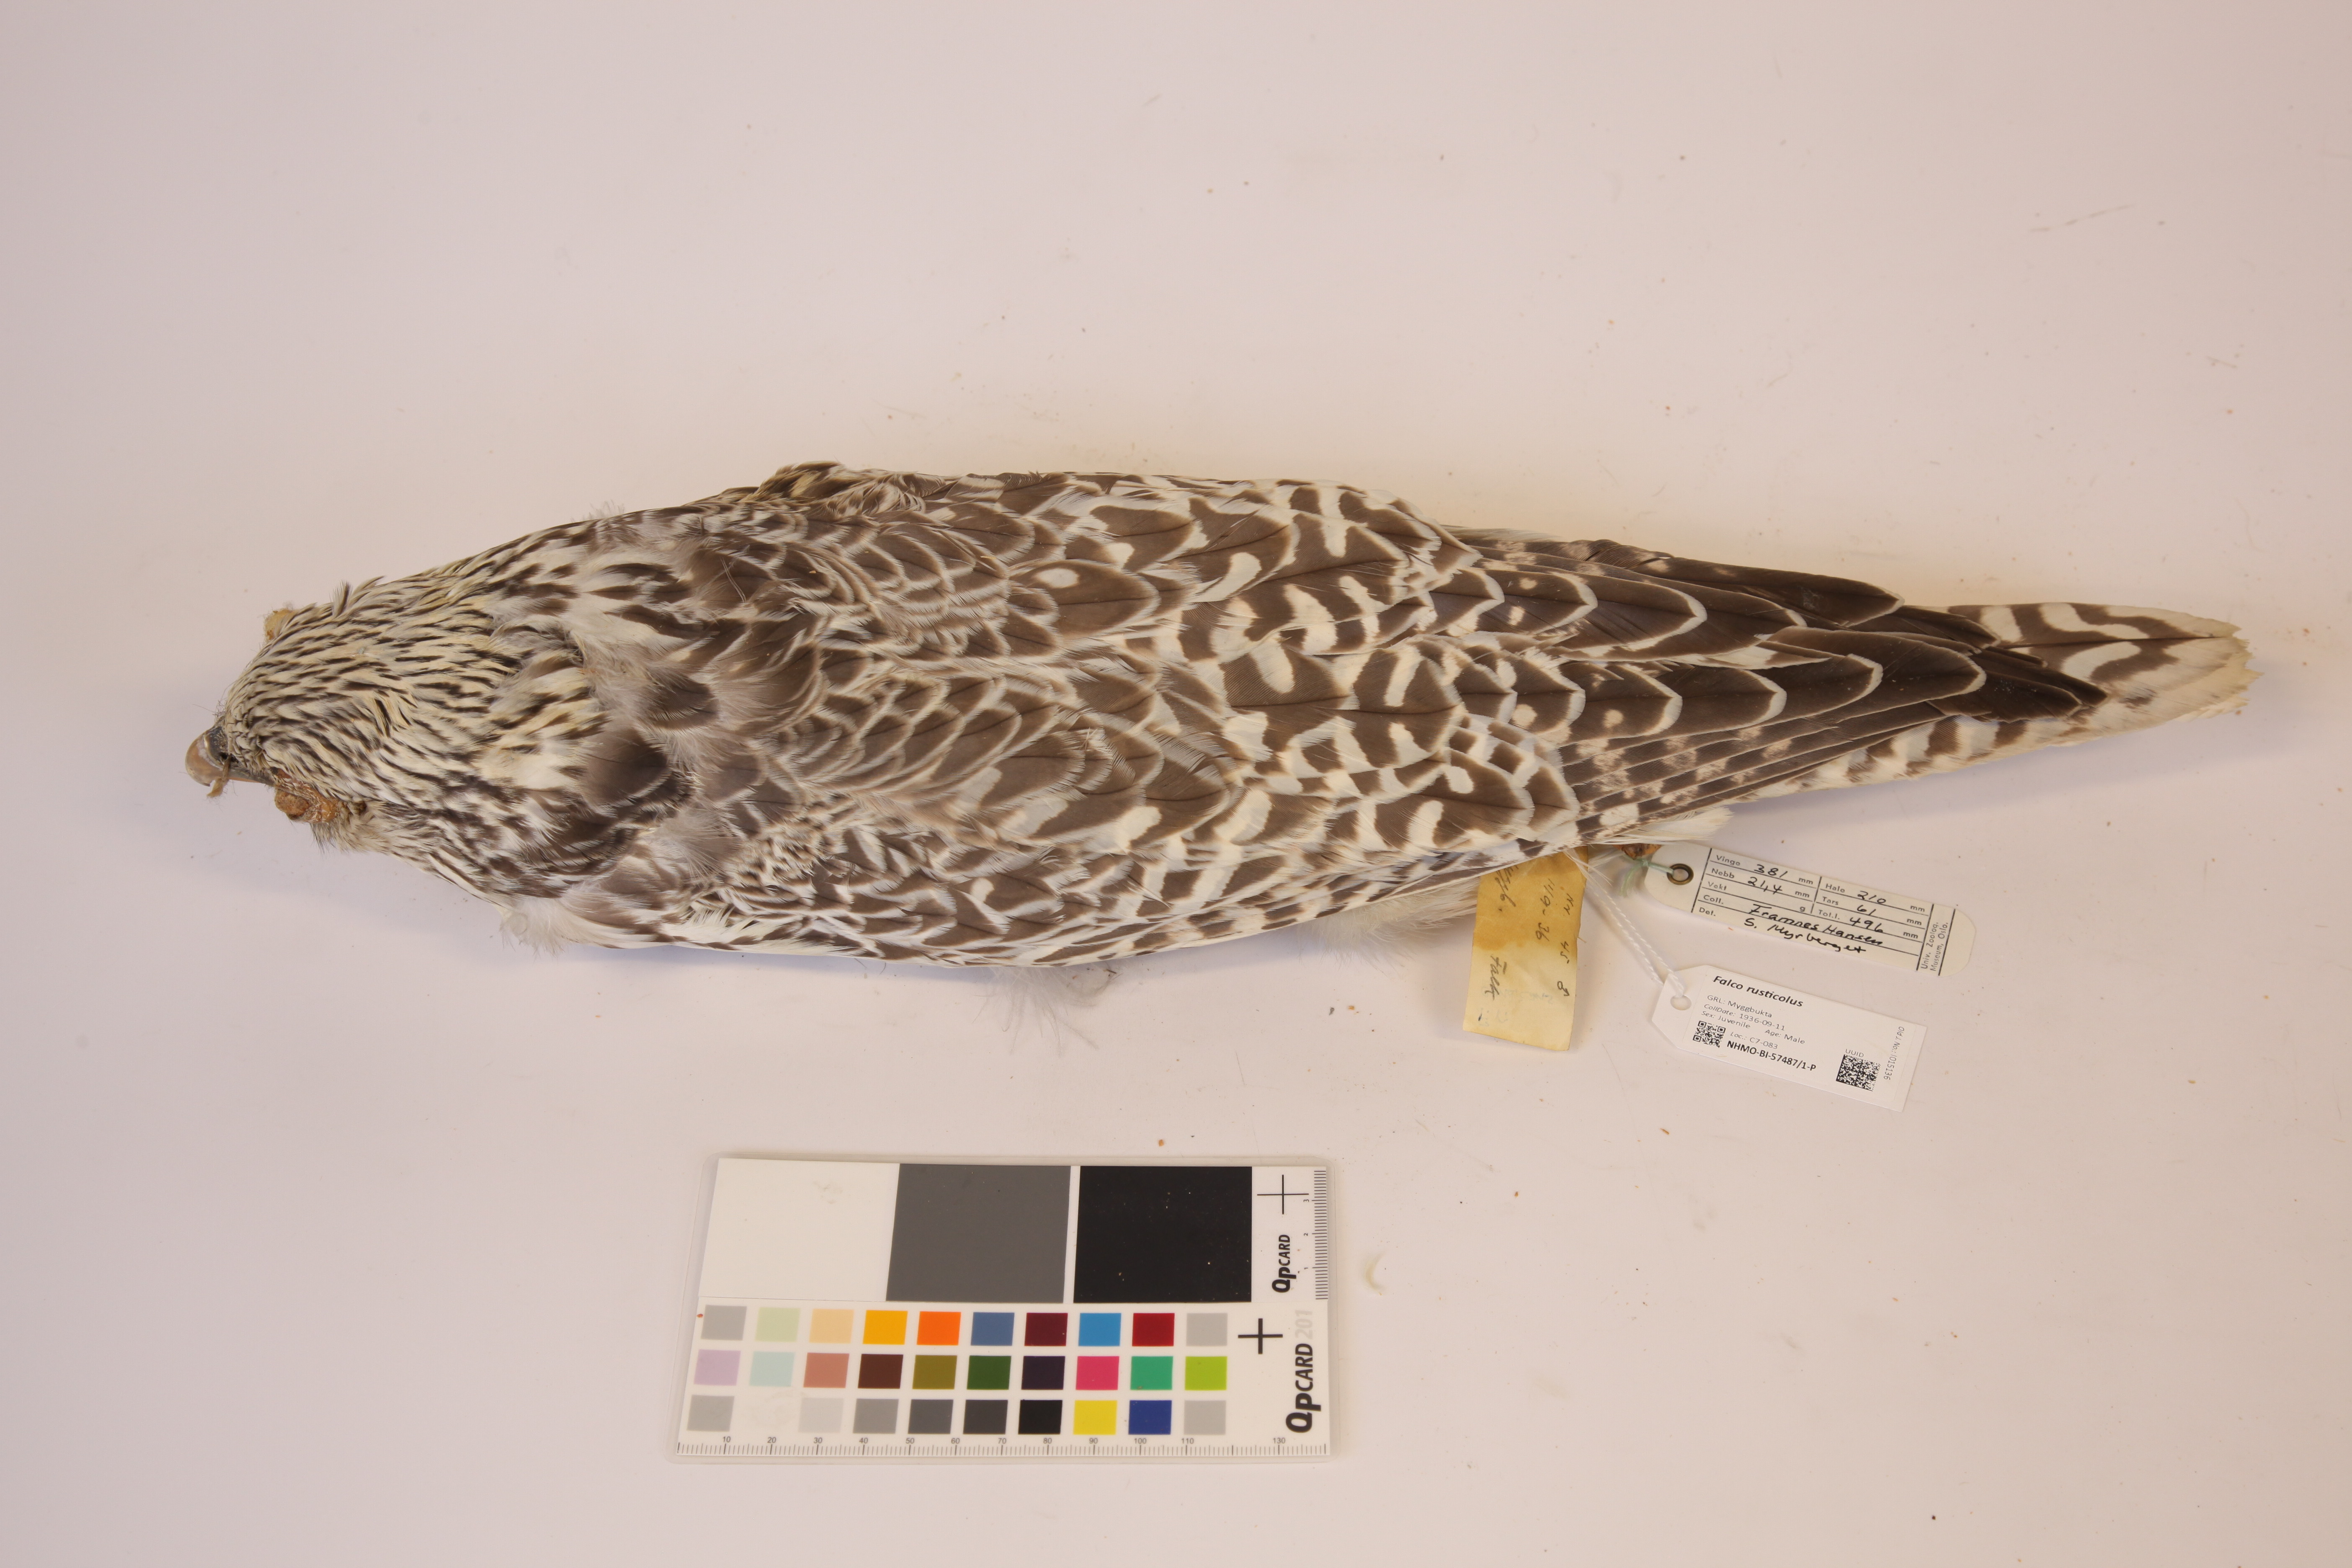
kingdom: Animalia
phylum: Chordata
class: Aves
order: Falconiformes
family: Falconidae
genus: Falco
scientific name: Falco rusticolus
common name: Gyrfalcon
